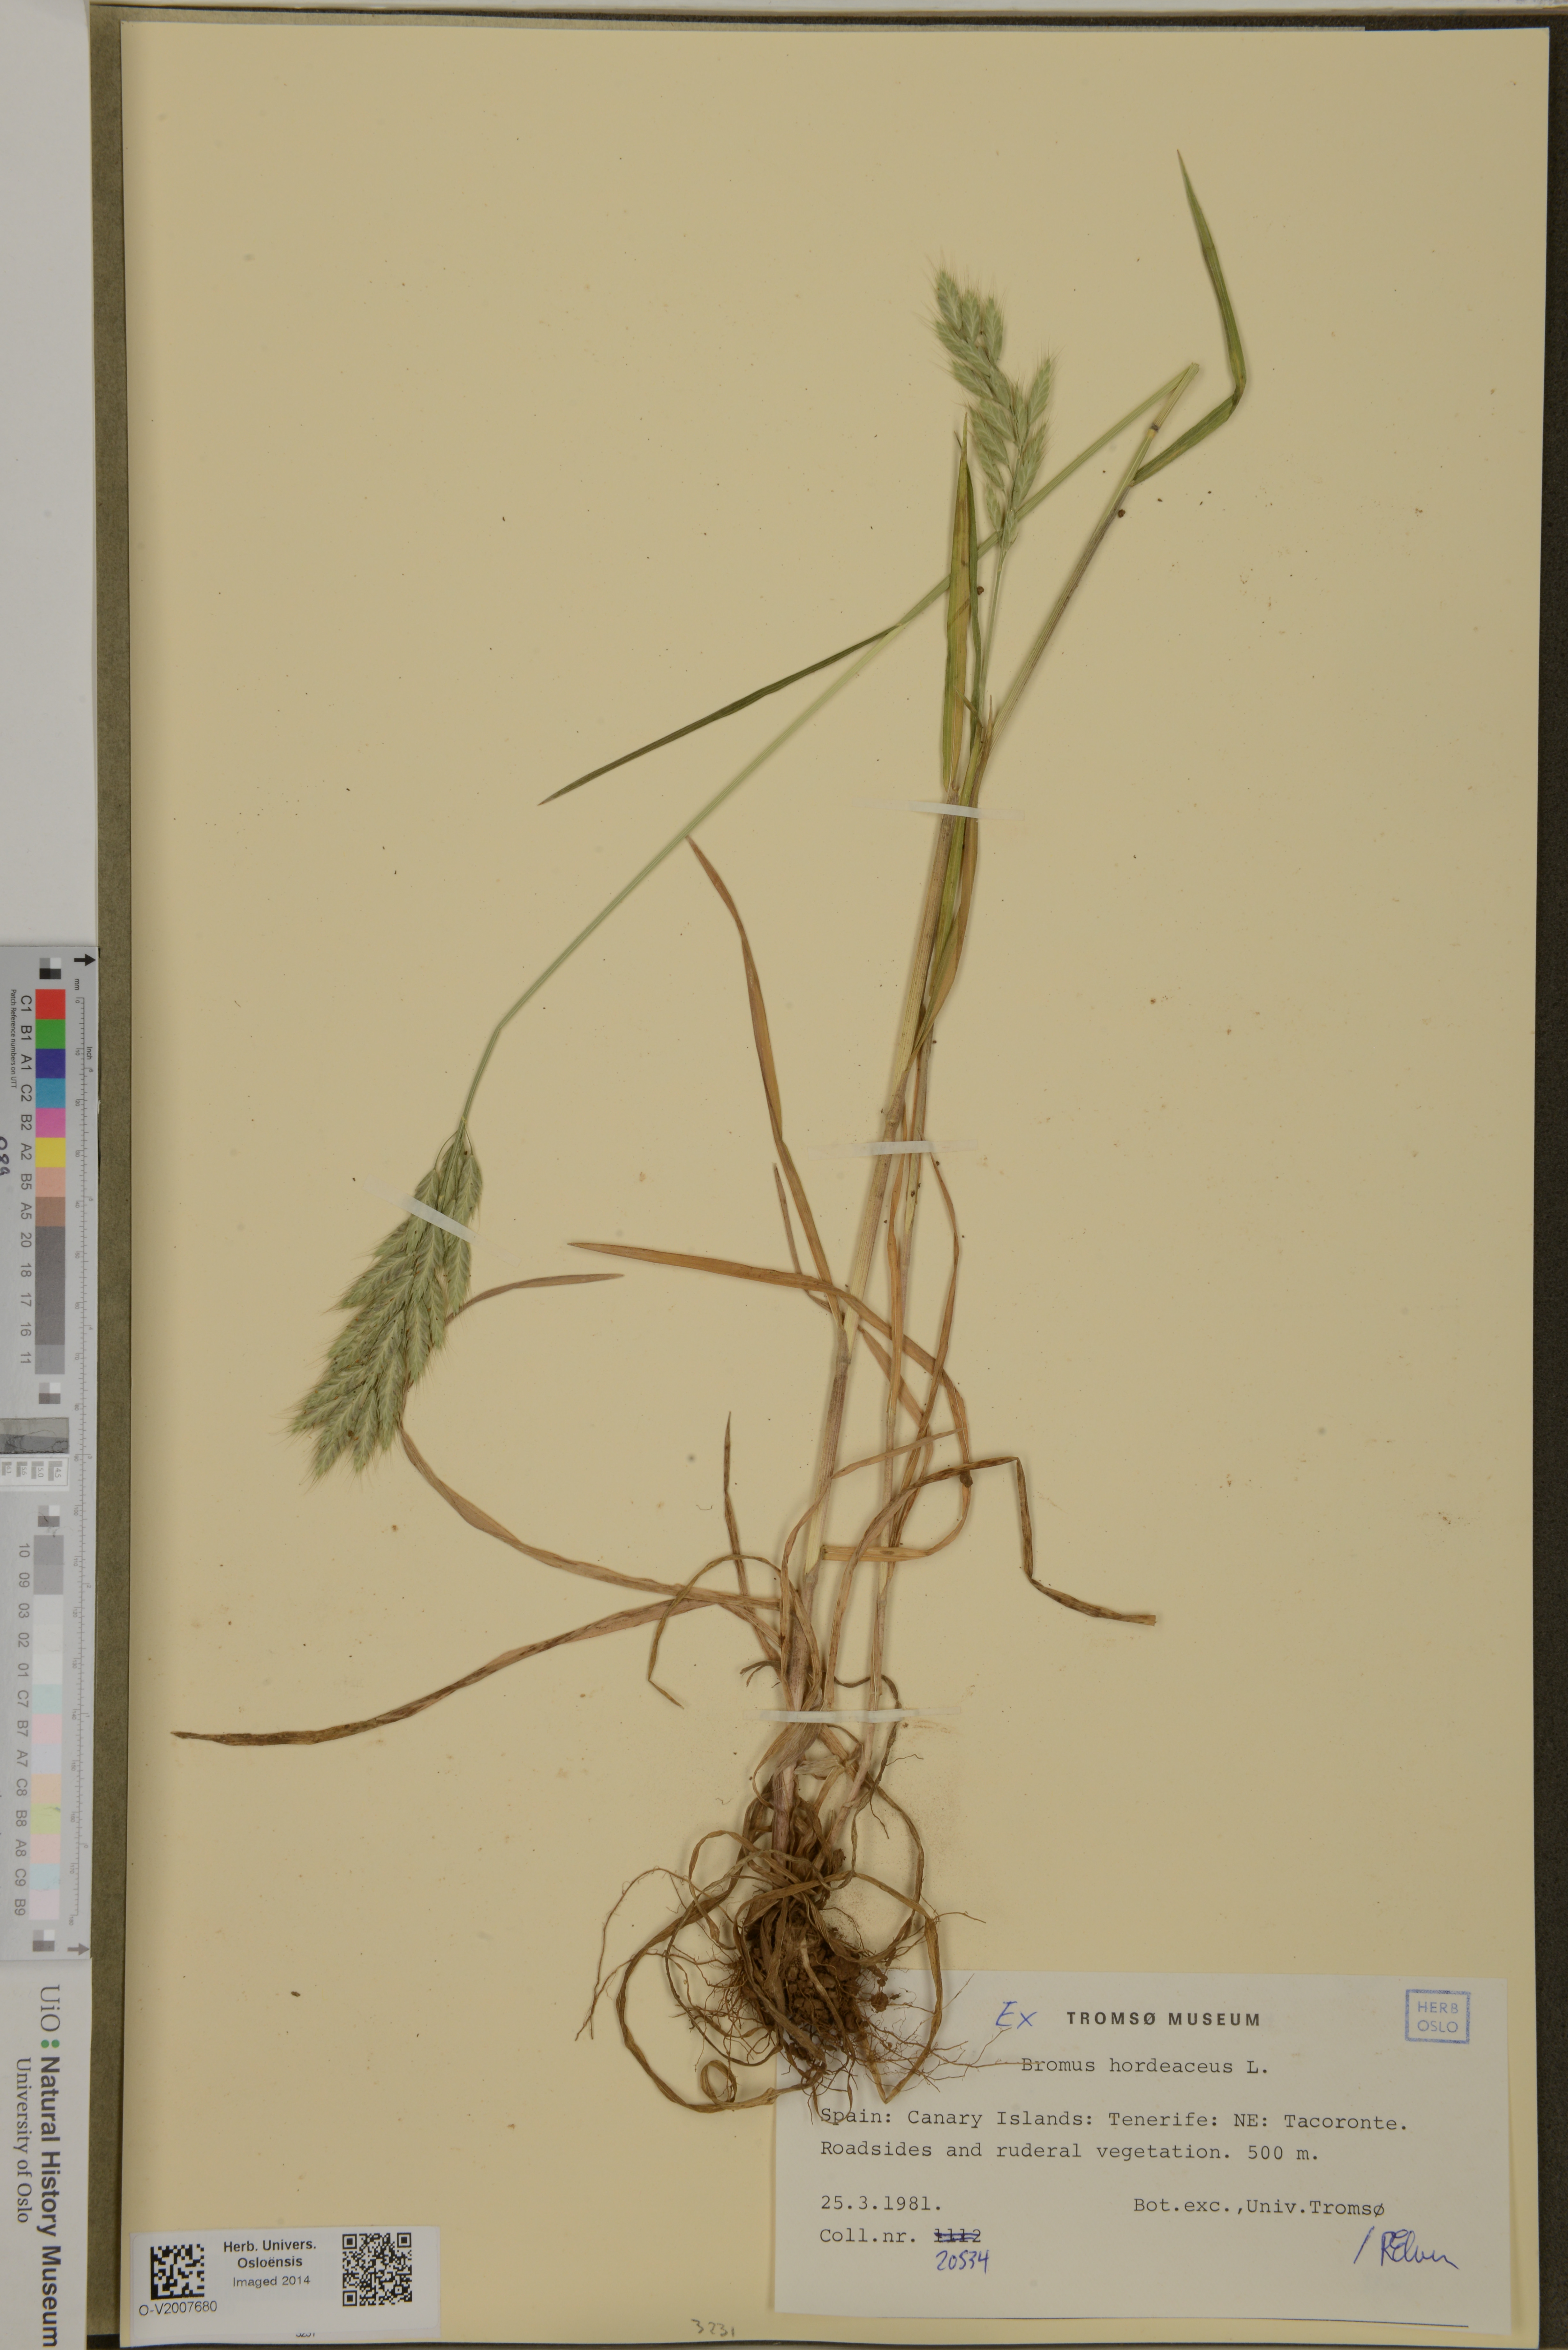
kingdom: Plantae
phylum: Tracheophyta
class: Liliopsida
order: Poales
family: Poaceae
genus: Bromus
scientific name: Bromus hordeaceus
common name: Soft brome
